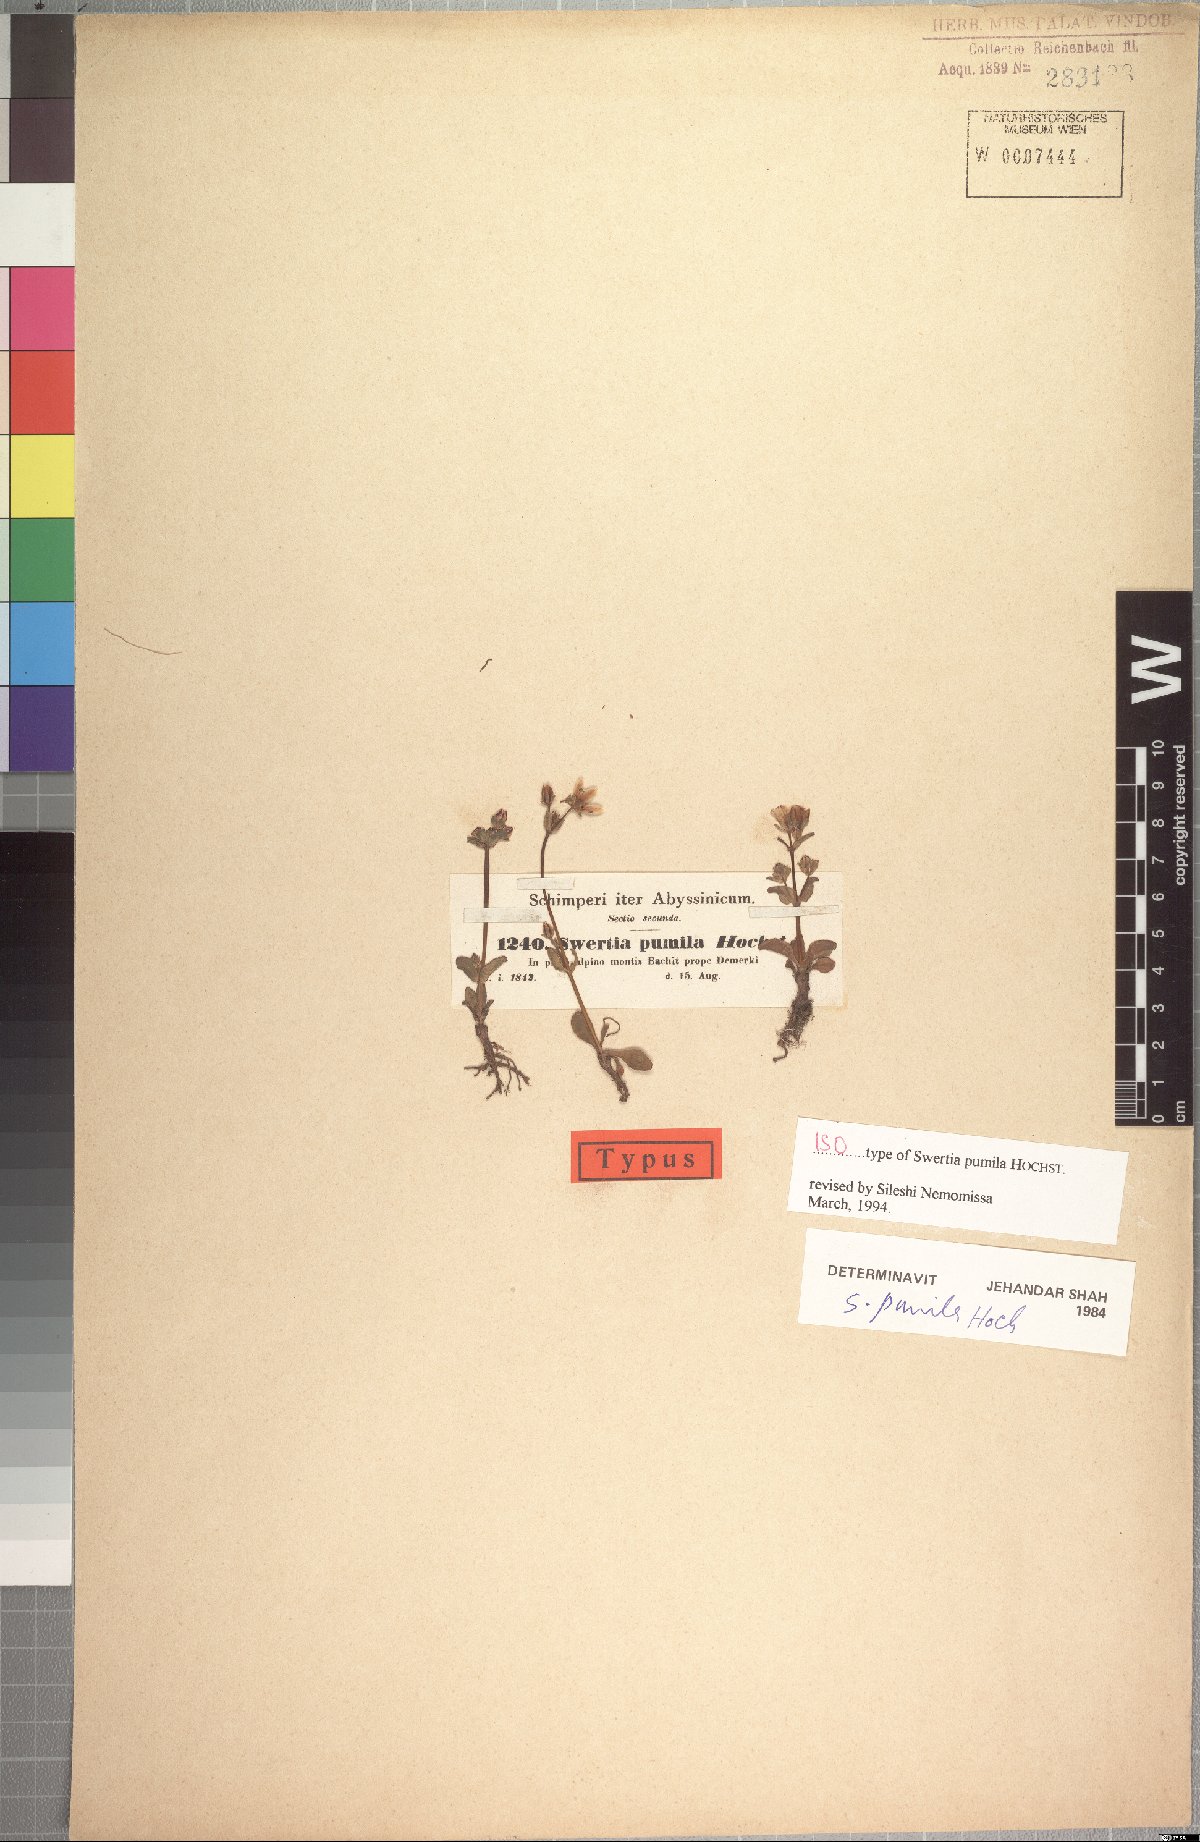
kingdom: Plantae
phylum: Tracheophyta
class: Magnoliopsida
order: Gentianales
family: Gentianaceae
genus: Swertia
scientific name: Swertia pumila
